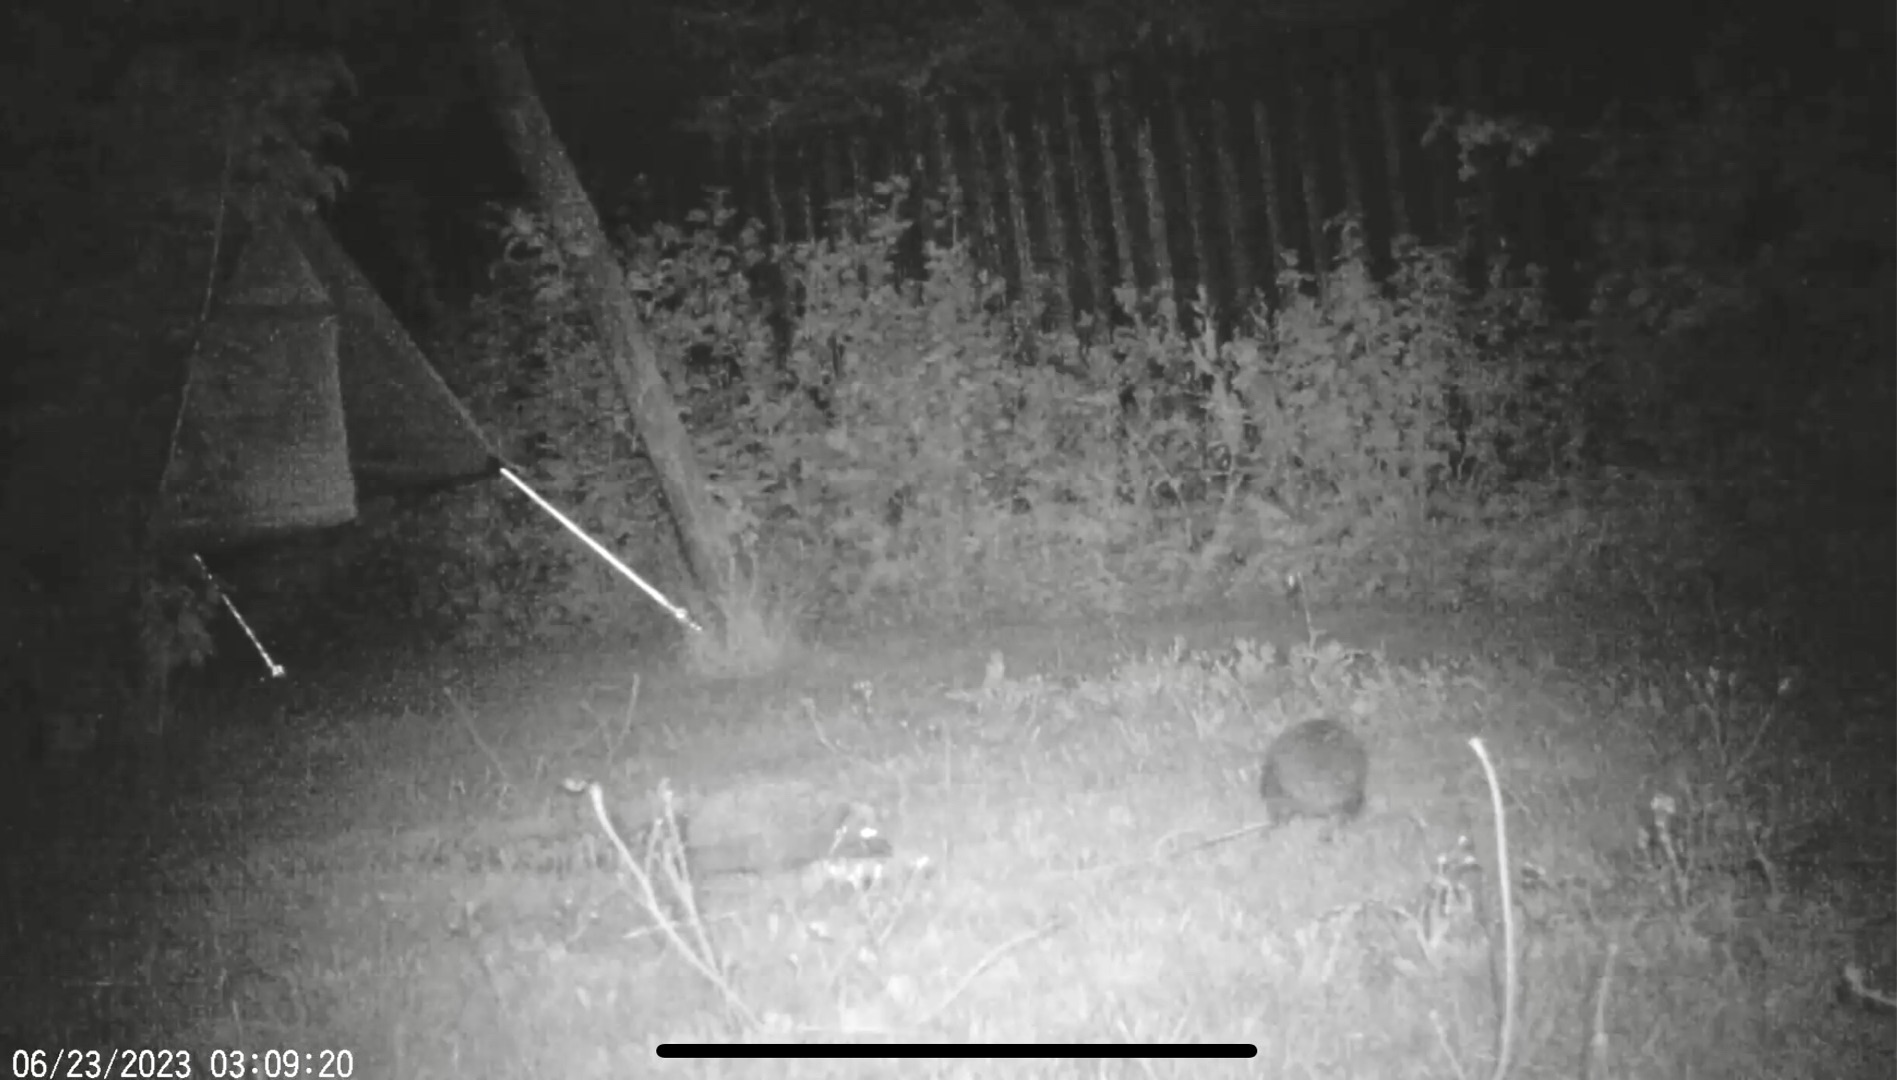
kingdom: Animalia
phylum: Chordata
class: Mammalia
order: Erinaceomorpha
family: Erinaceidae
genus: Erinaceus
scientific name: Erinaceus europaeus
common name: Pindsvin
